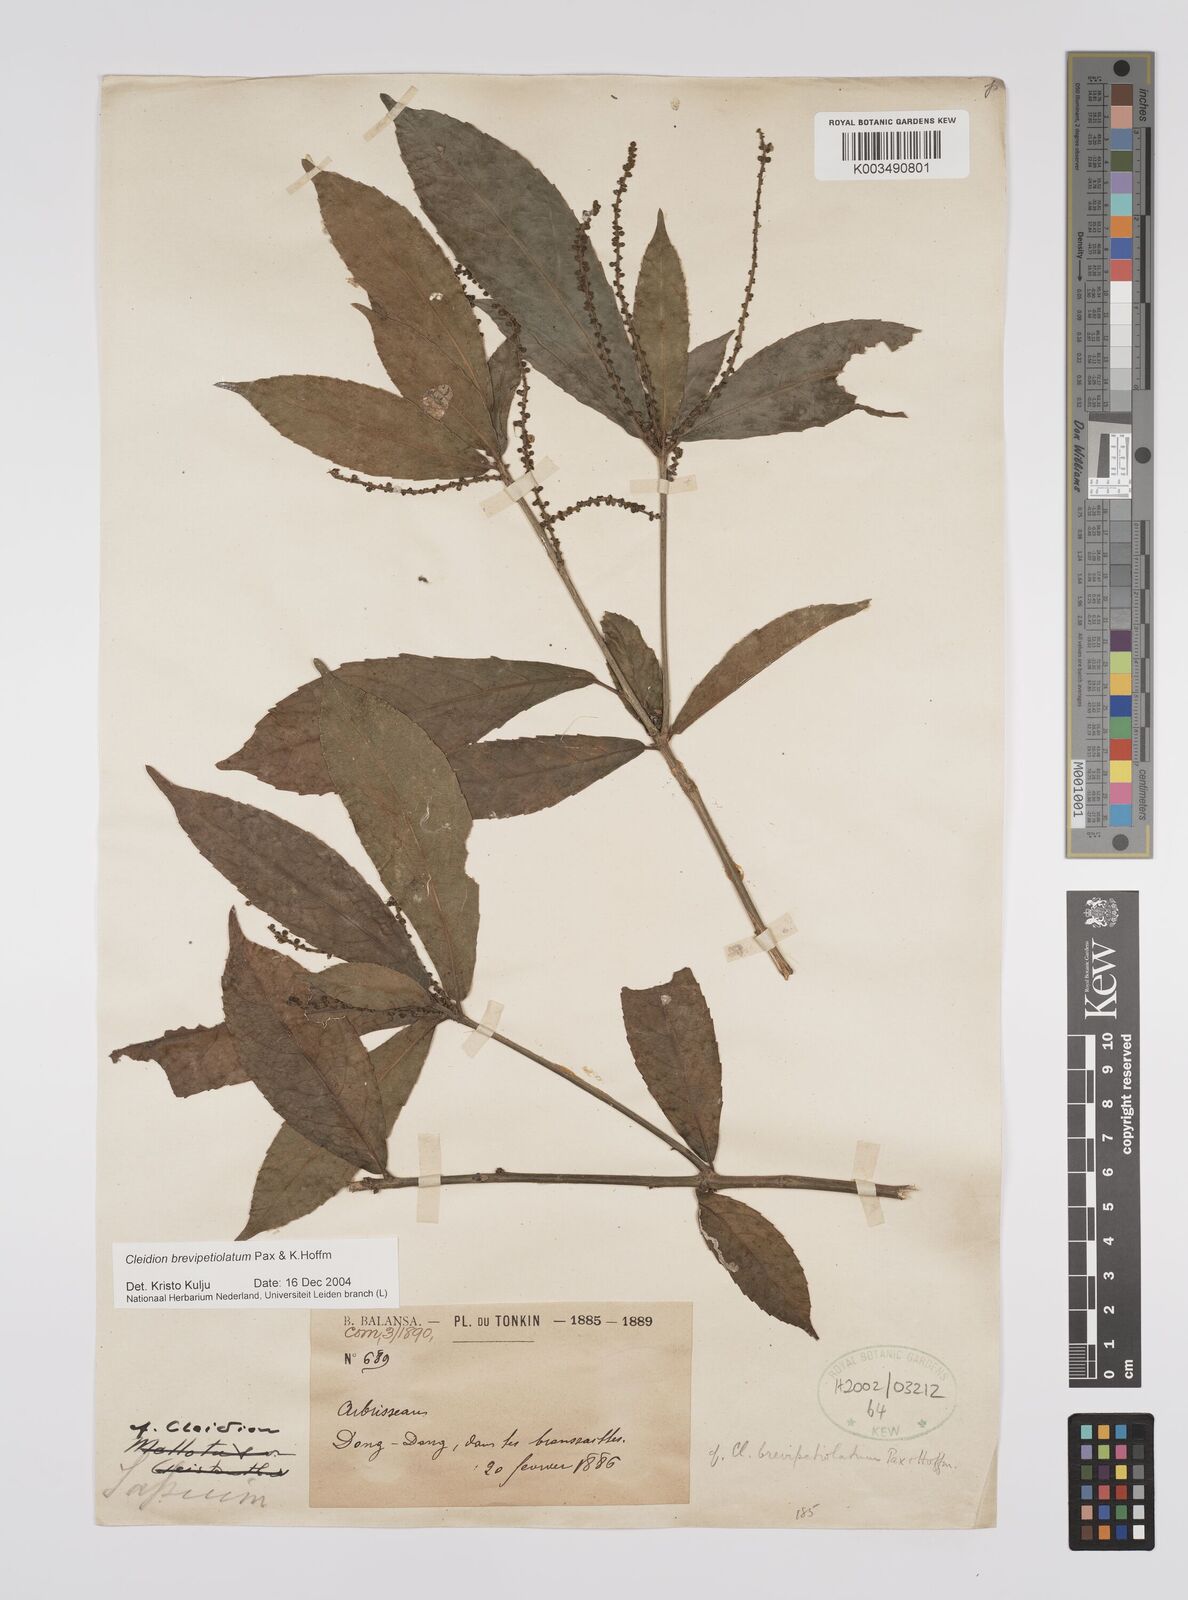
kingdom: Plantae
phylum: Tracheophyta
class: Magnoliopsida
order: Malpighiales
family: Euphorbiaceae
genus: Cleidion
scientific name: Cleidion brevipetiolatum
